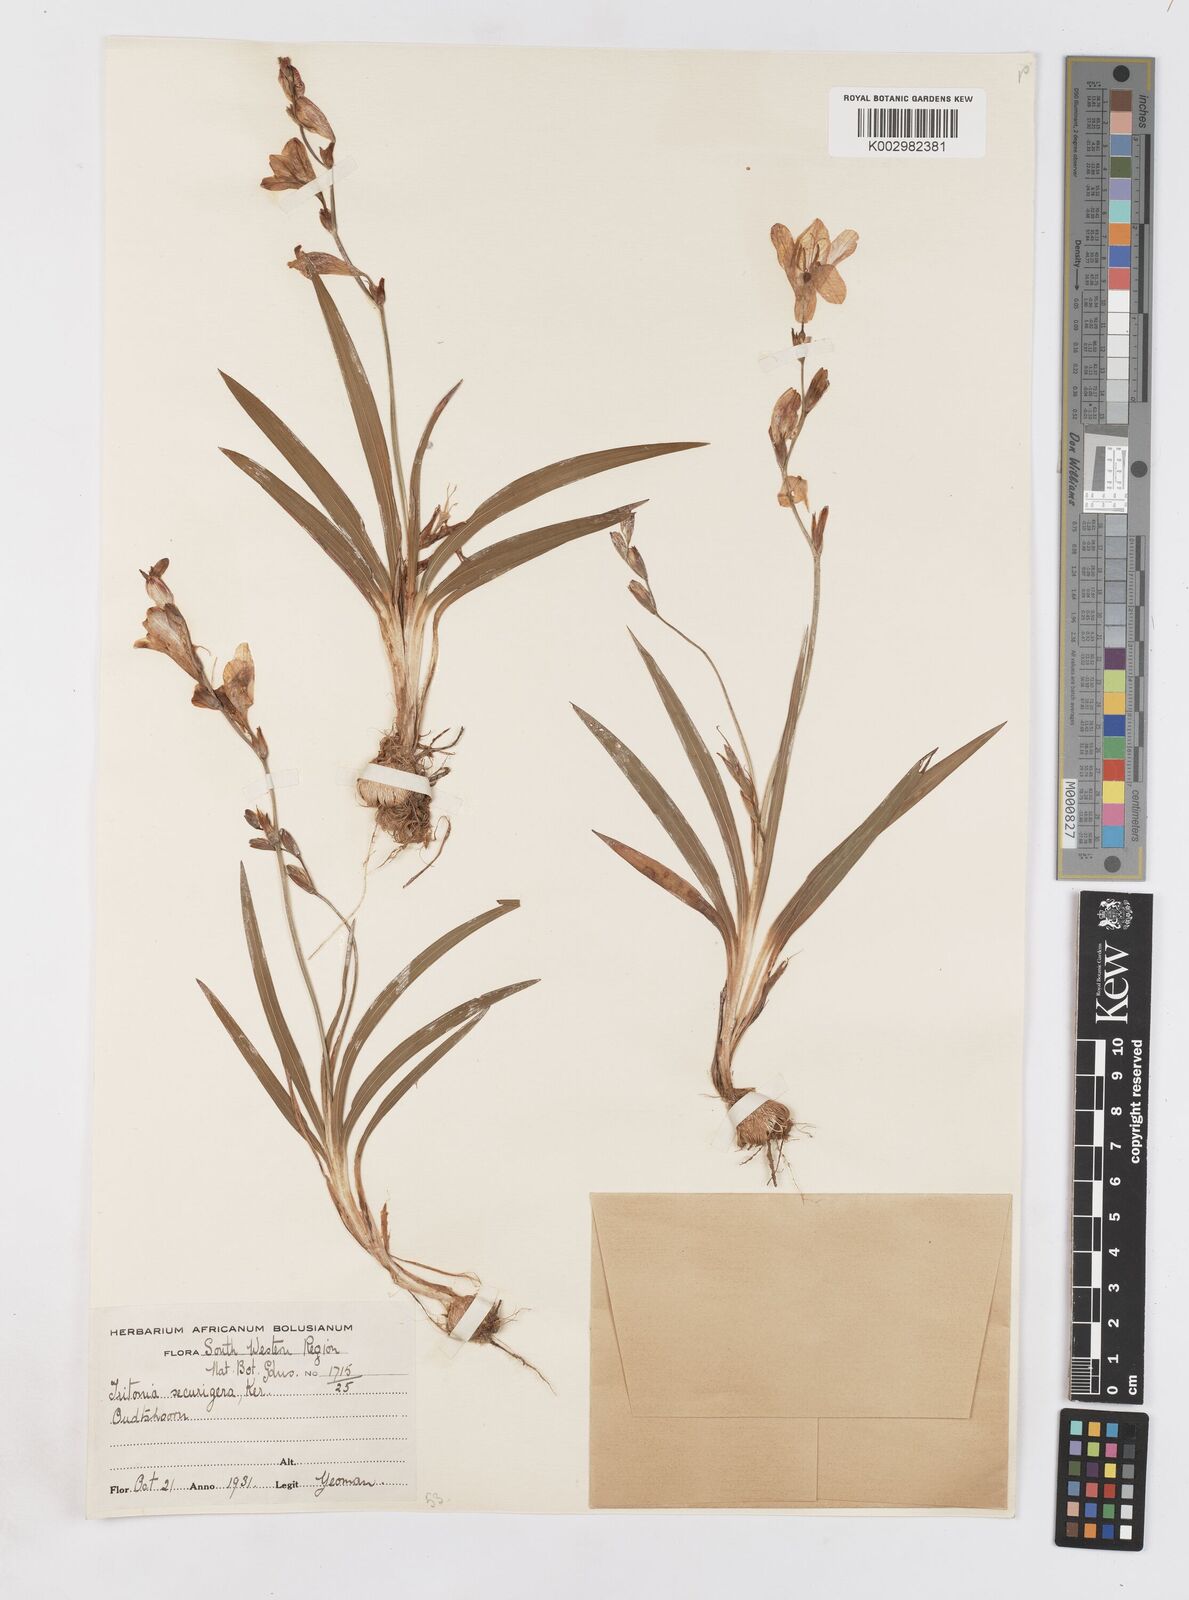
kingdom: Plantae
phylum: Tracheophyta
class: Liliopsida
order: Asparagales
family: Iridaceae
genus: Tritonia
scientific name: Tritonia securigera
